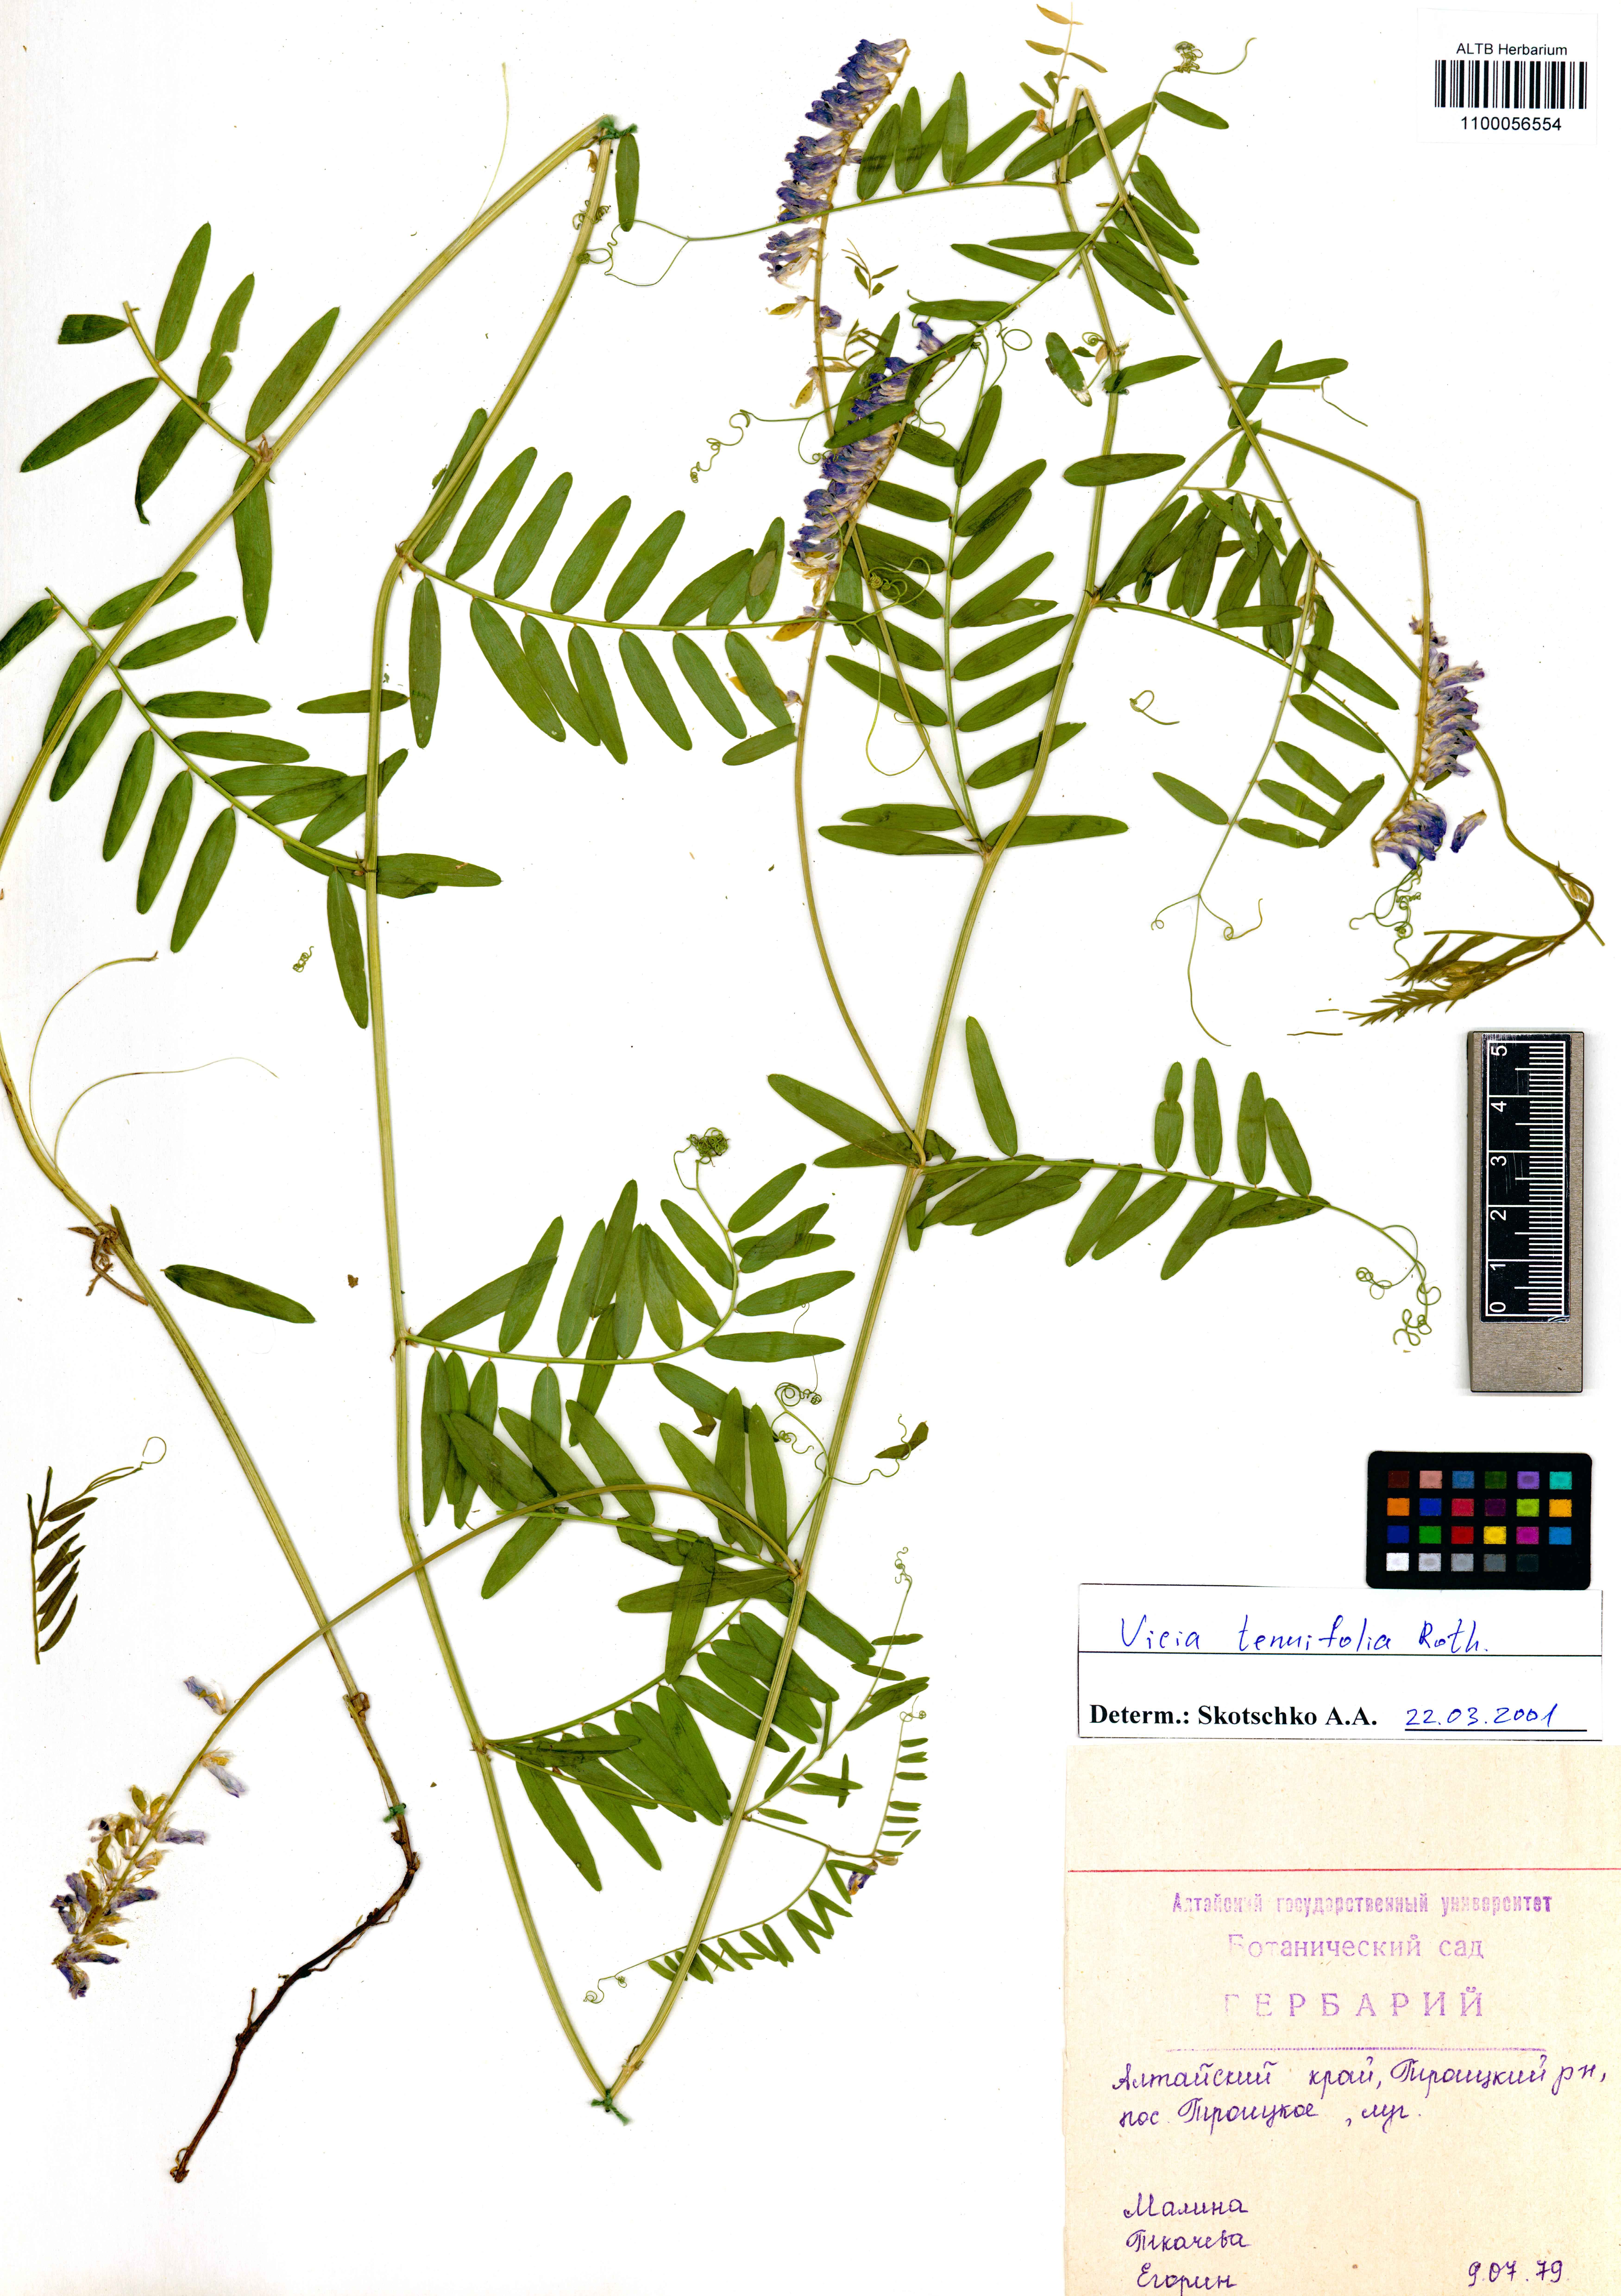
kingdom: Plantae
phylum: Tracheophyta
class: Magnoliopsida
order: Fabales
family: Fabaceae
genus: Vicia
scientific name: Vicia tenuifolia
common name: Fine-leaved vetch
